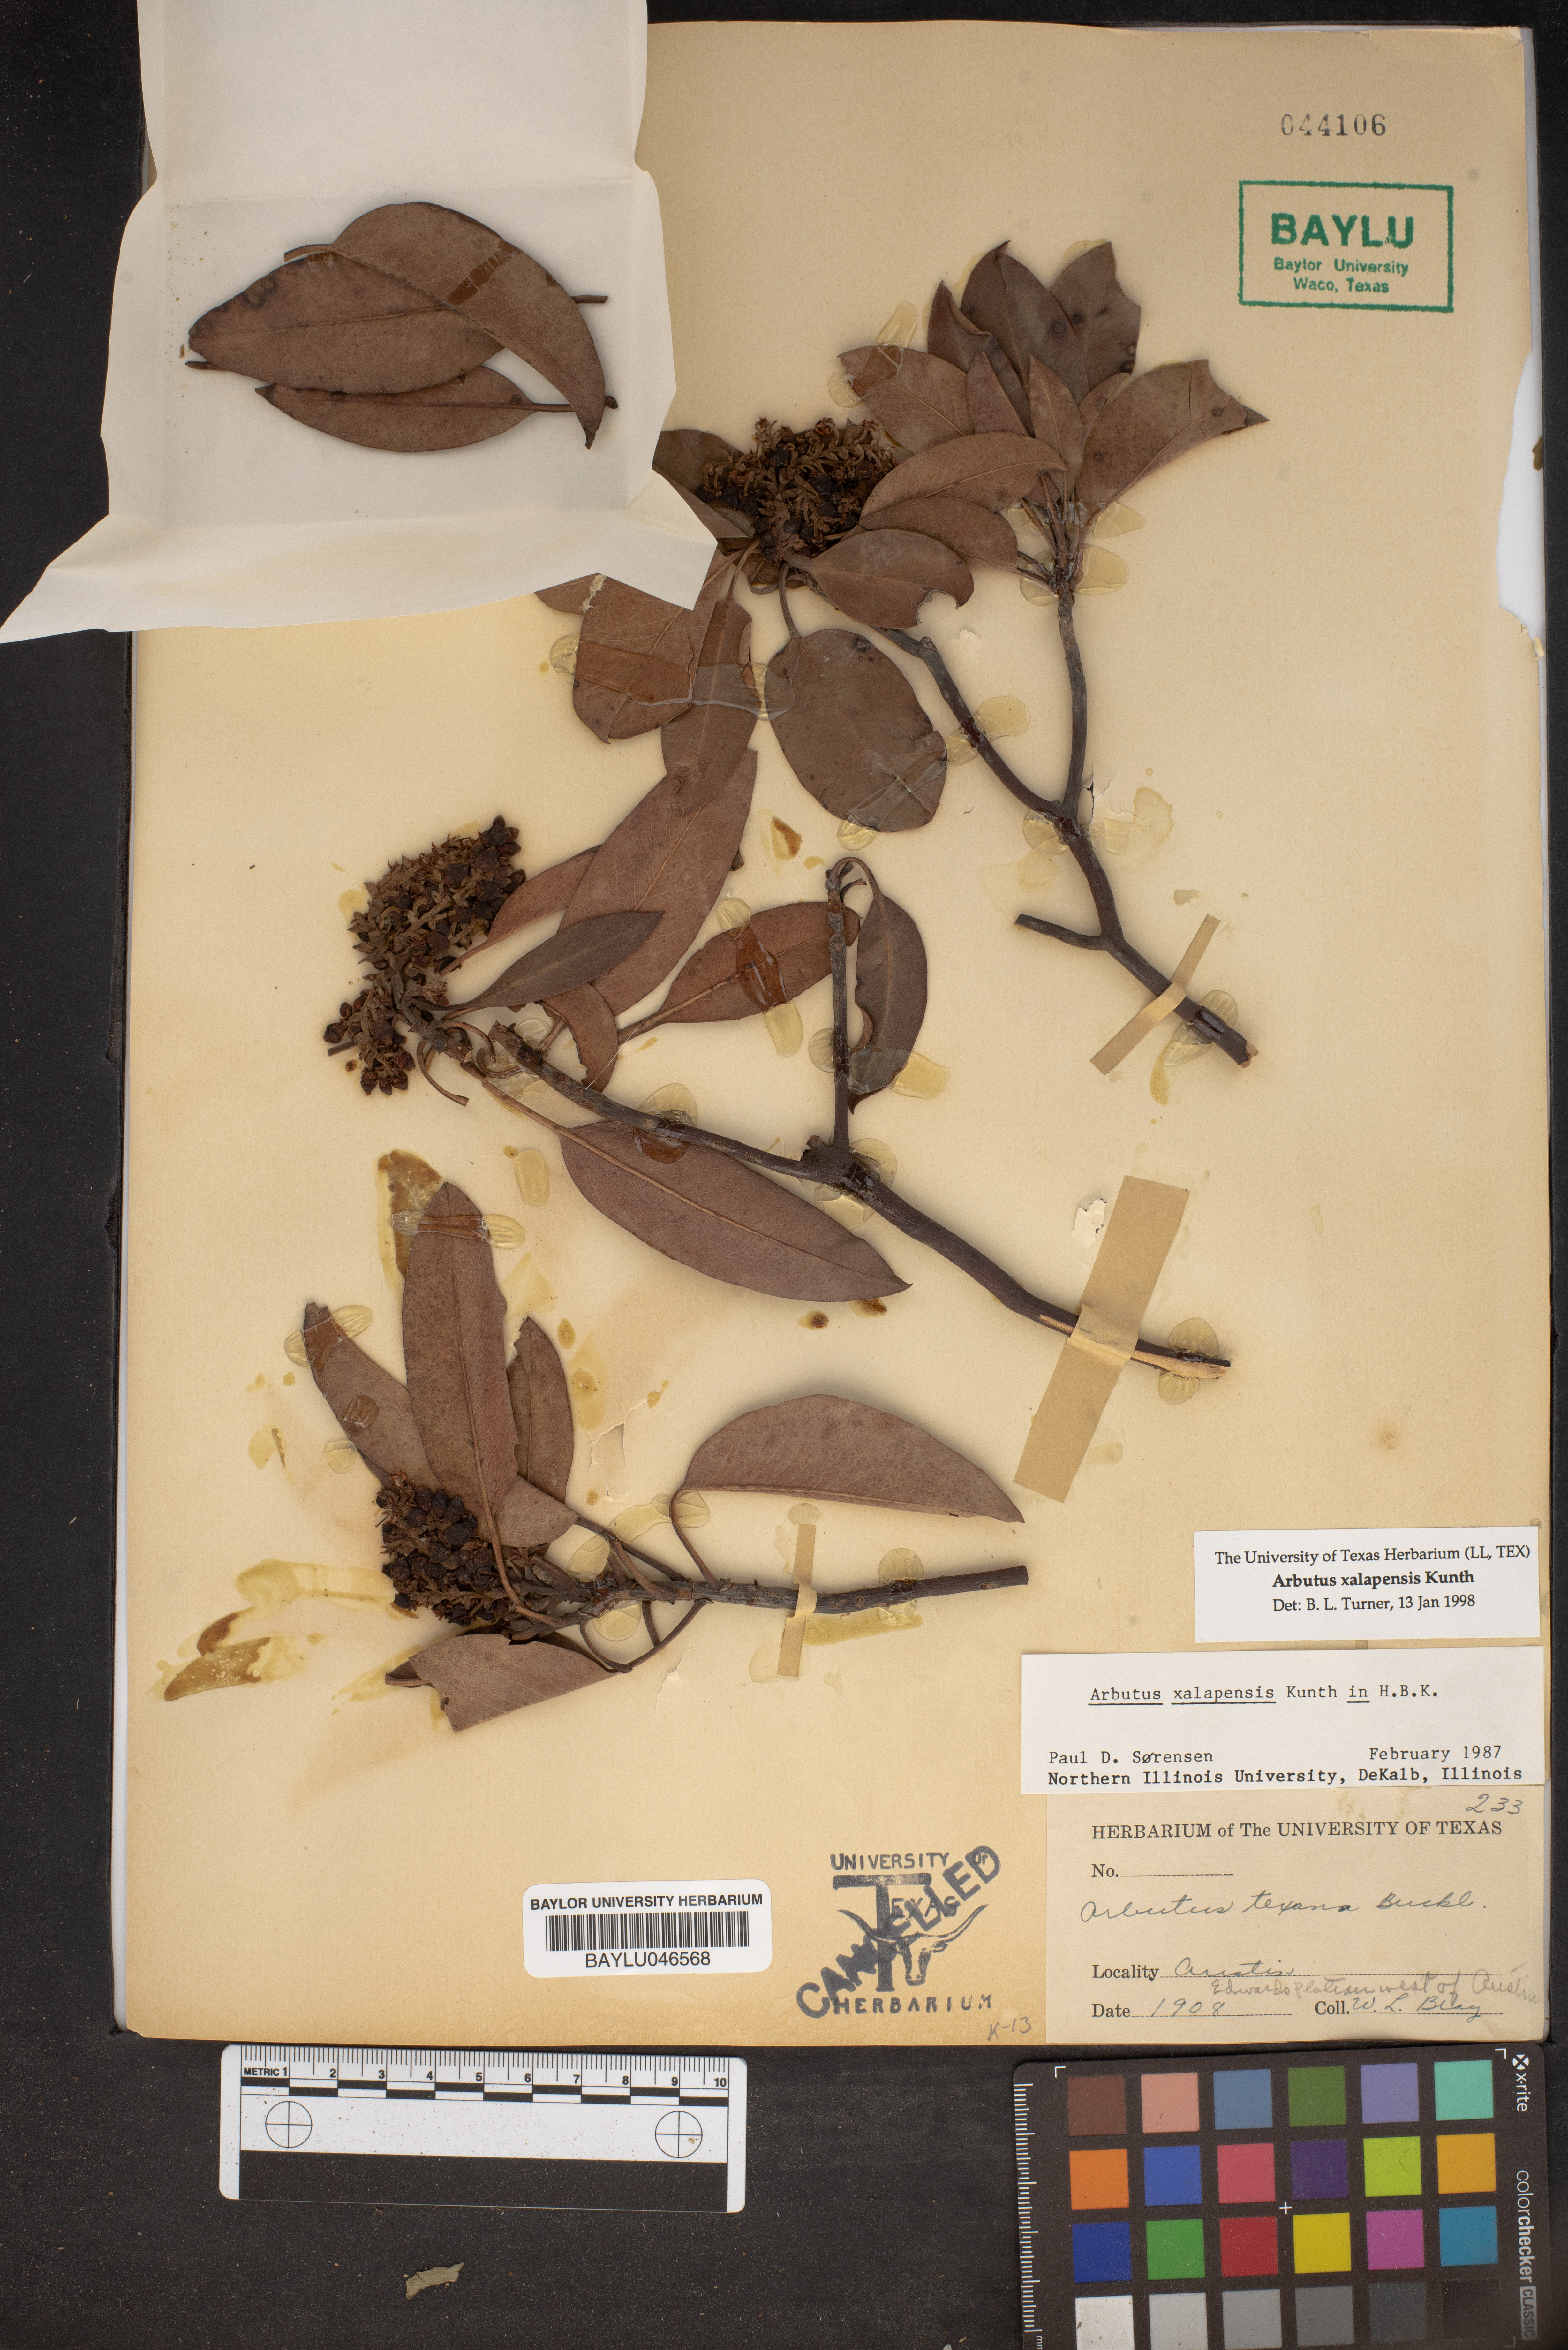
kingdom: Plantae
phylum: Tracheophyta
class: Magnoliopsida
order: Ericales
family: Ericaceae
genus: Arbutus
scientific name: Arbutus xalapensis
